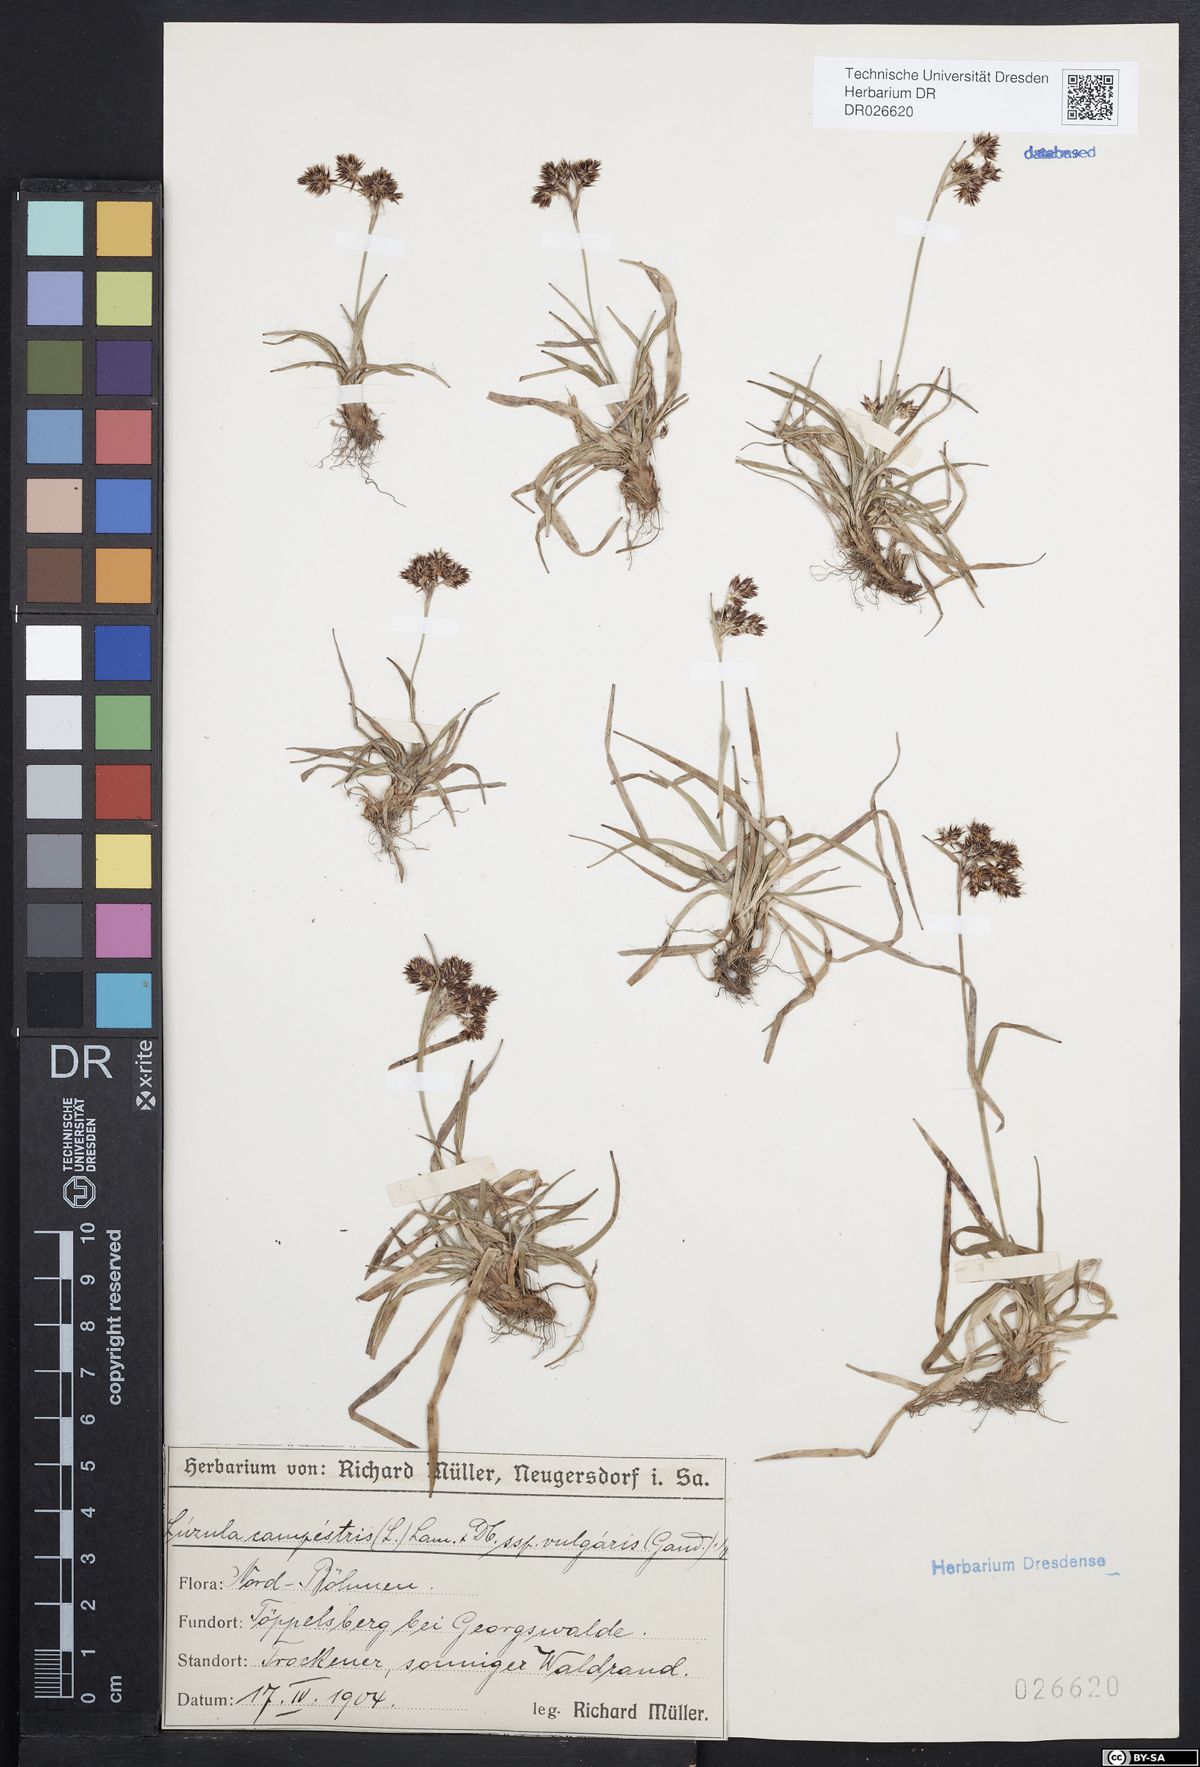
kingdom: Plantae
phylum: Tracheophyta
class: Liliopsida
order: Poales
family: Juncaceae
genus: Luzula
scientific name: Luzula campestris
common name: Field wood-rush
